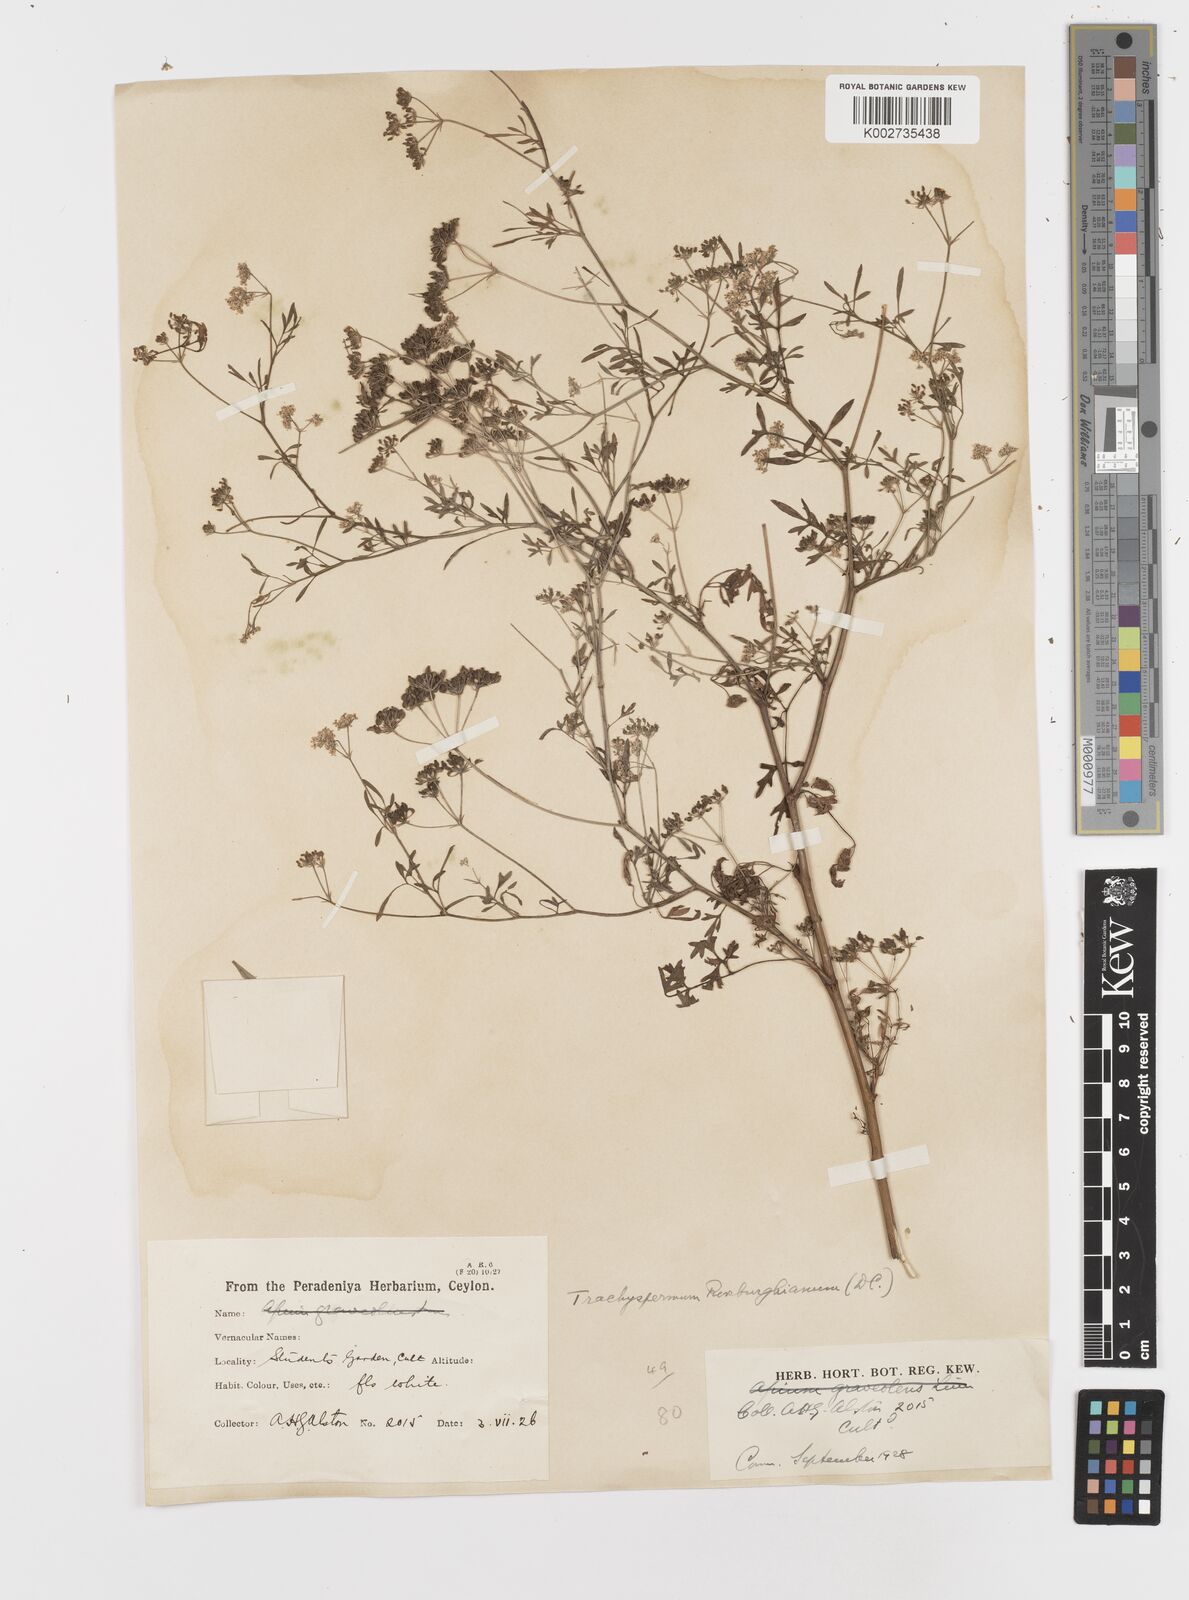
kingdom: Plantae
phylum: Tracheophyta
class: Magnoliopsida
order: Apiales
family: Apiaceae
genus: Psammogeton
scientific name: Psammogeton involucratum
